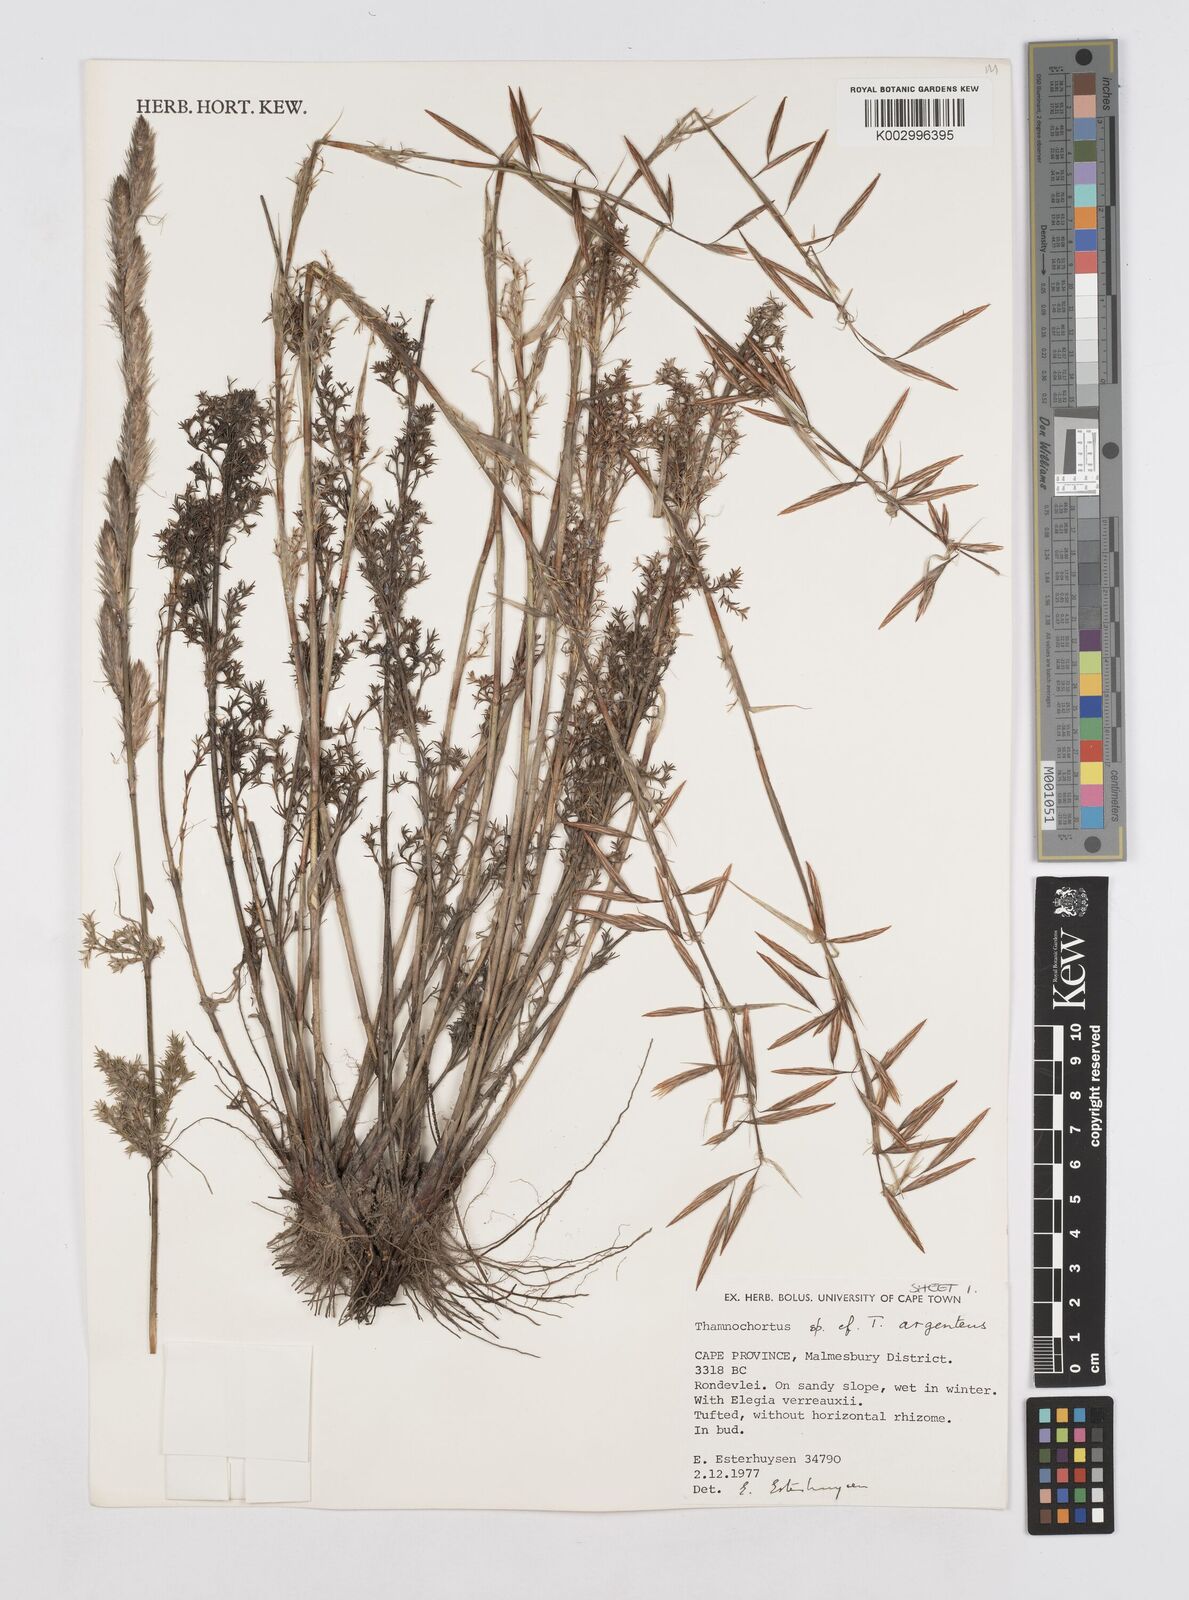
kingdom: Plantae
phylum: Tracheophyta
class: Liliopsida
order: Poales
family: Restionaceae
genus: Hypodiscus
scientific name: Hypodiscus argenteus
